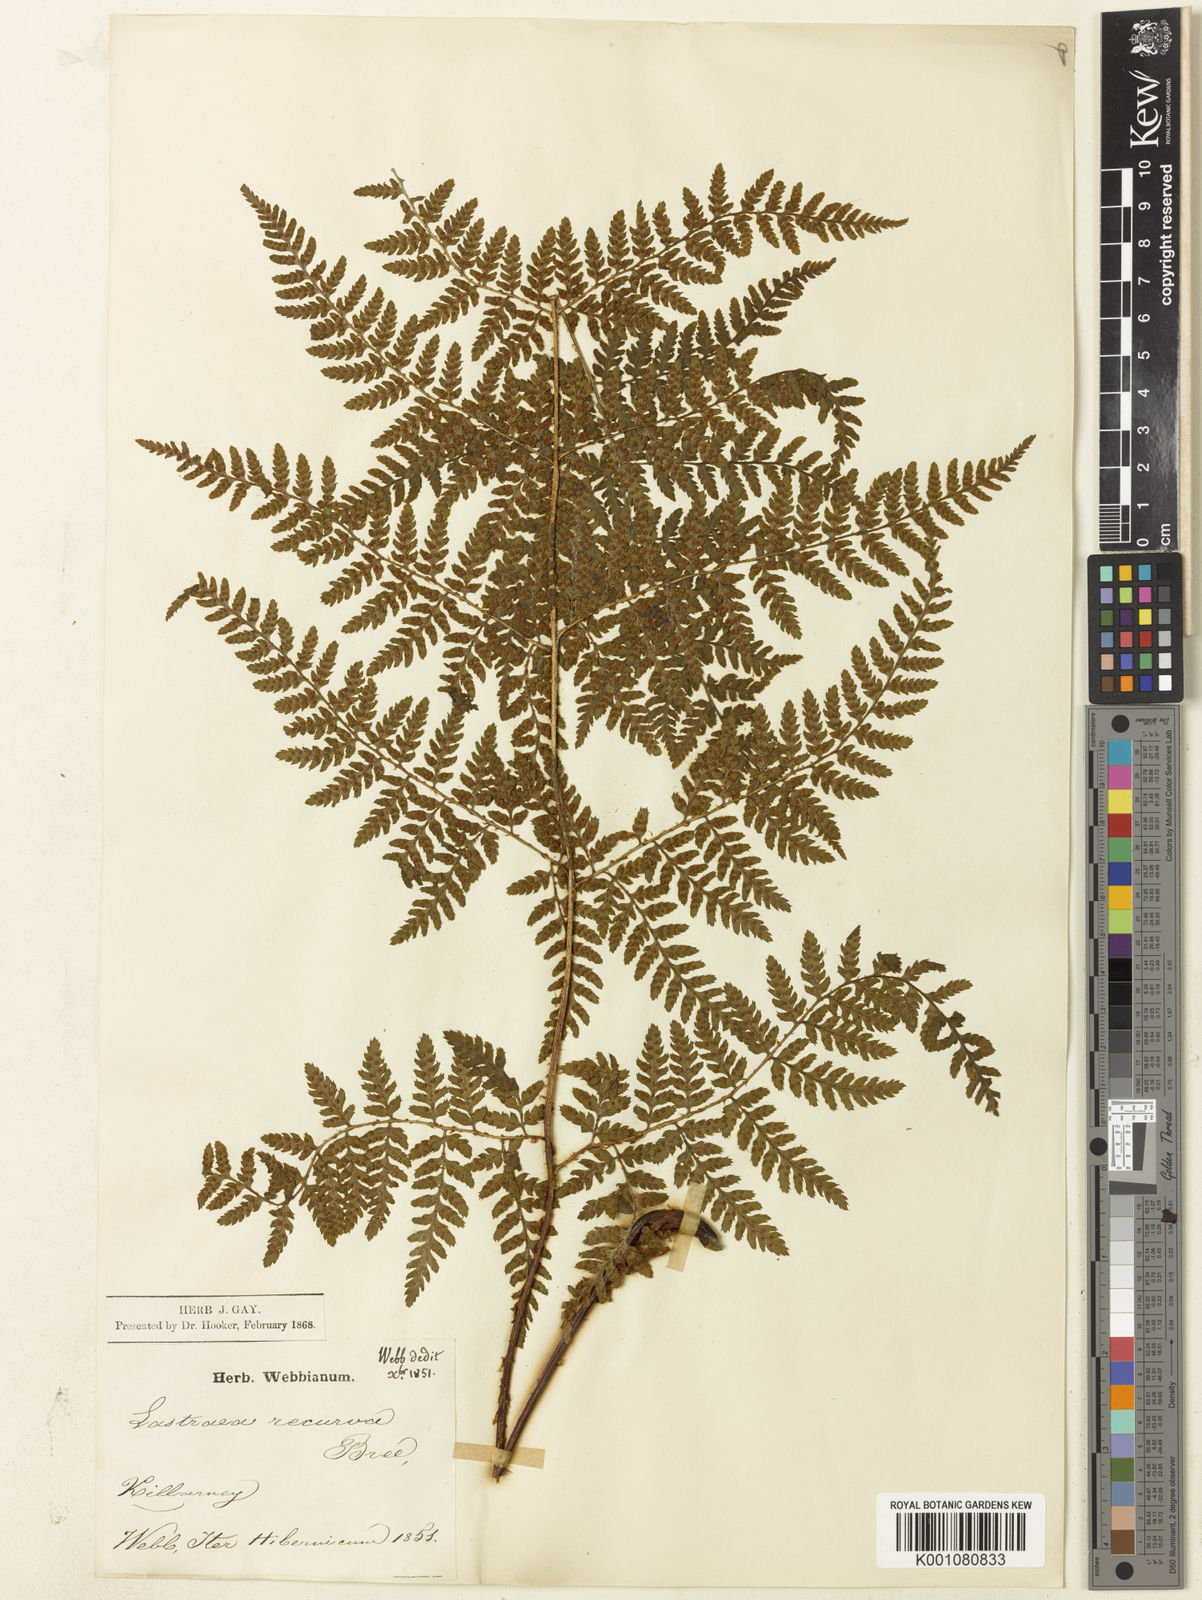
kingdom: Plantae
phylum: Tracheophyta
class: Polypodiopsida
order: Polypodiales
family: Dryopteridaceae
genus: Dryopteris
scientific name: Dryopteris aemula
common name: Hay-scented buckler-fern
